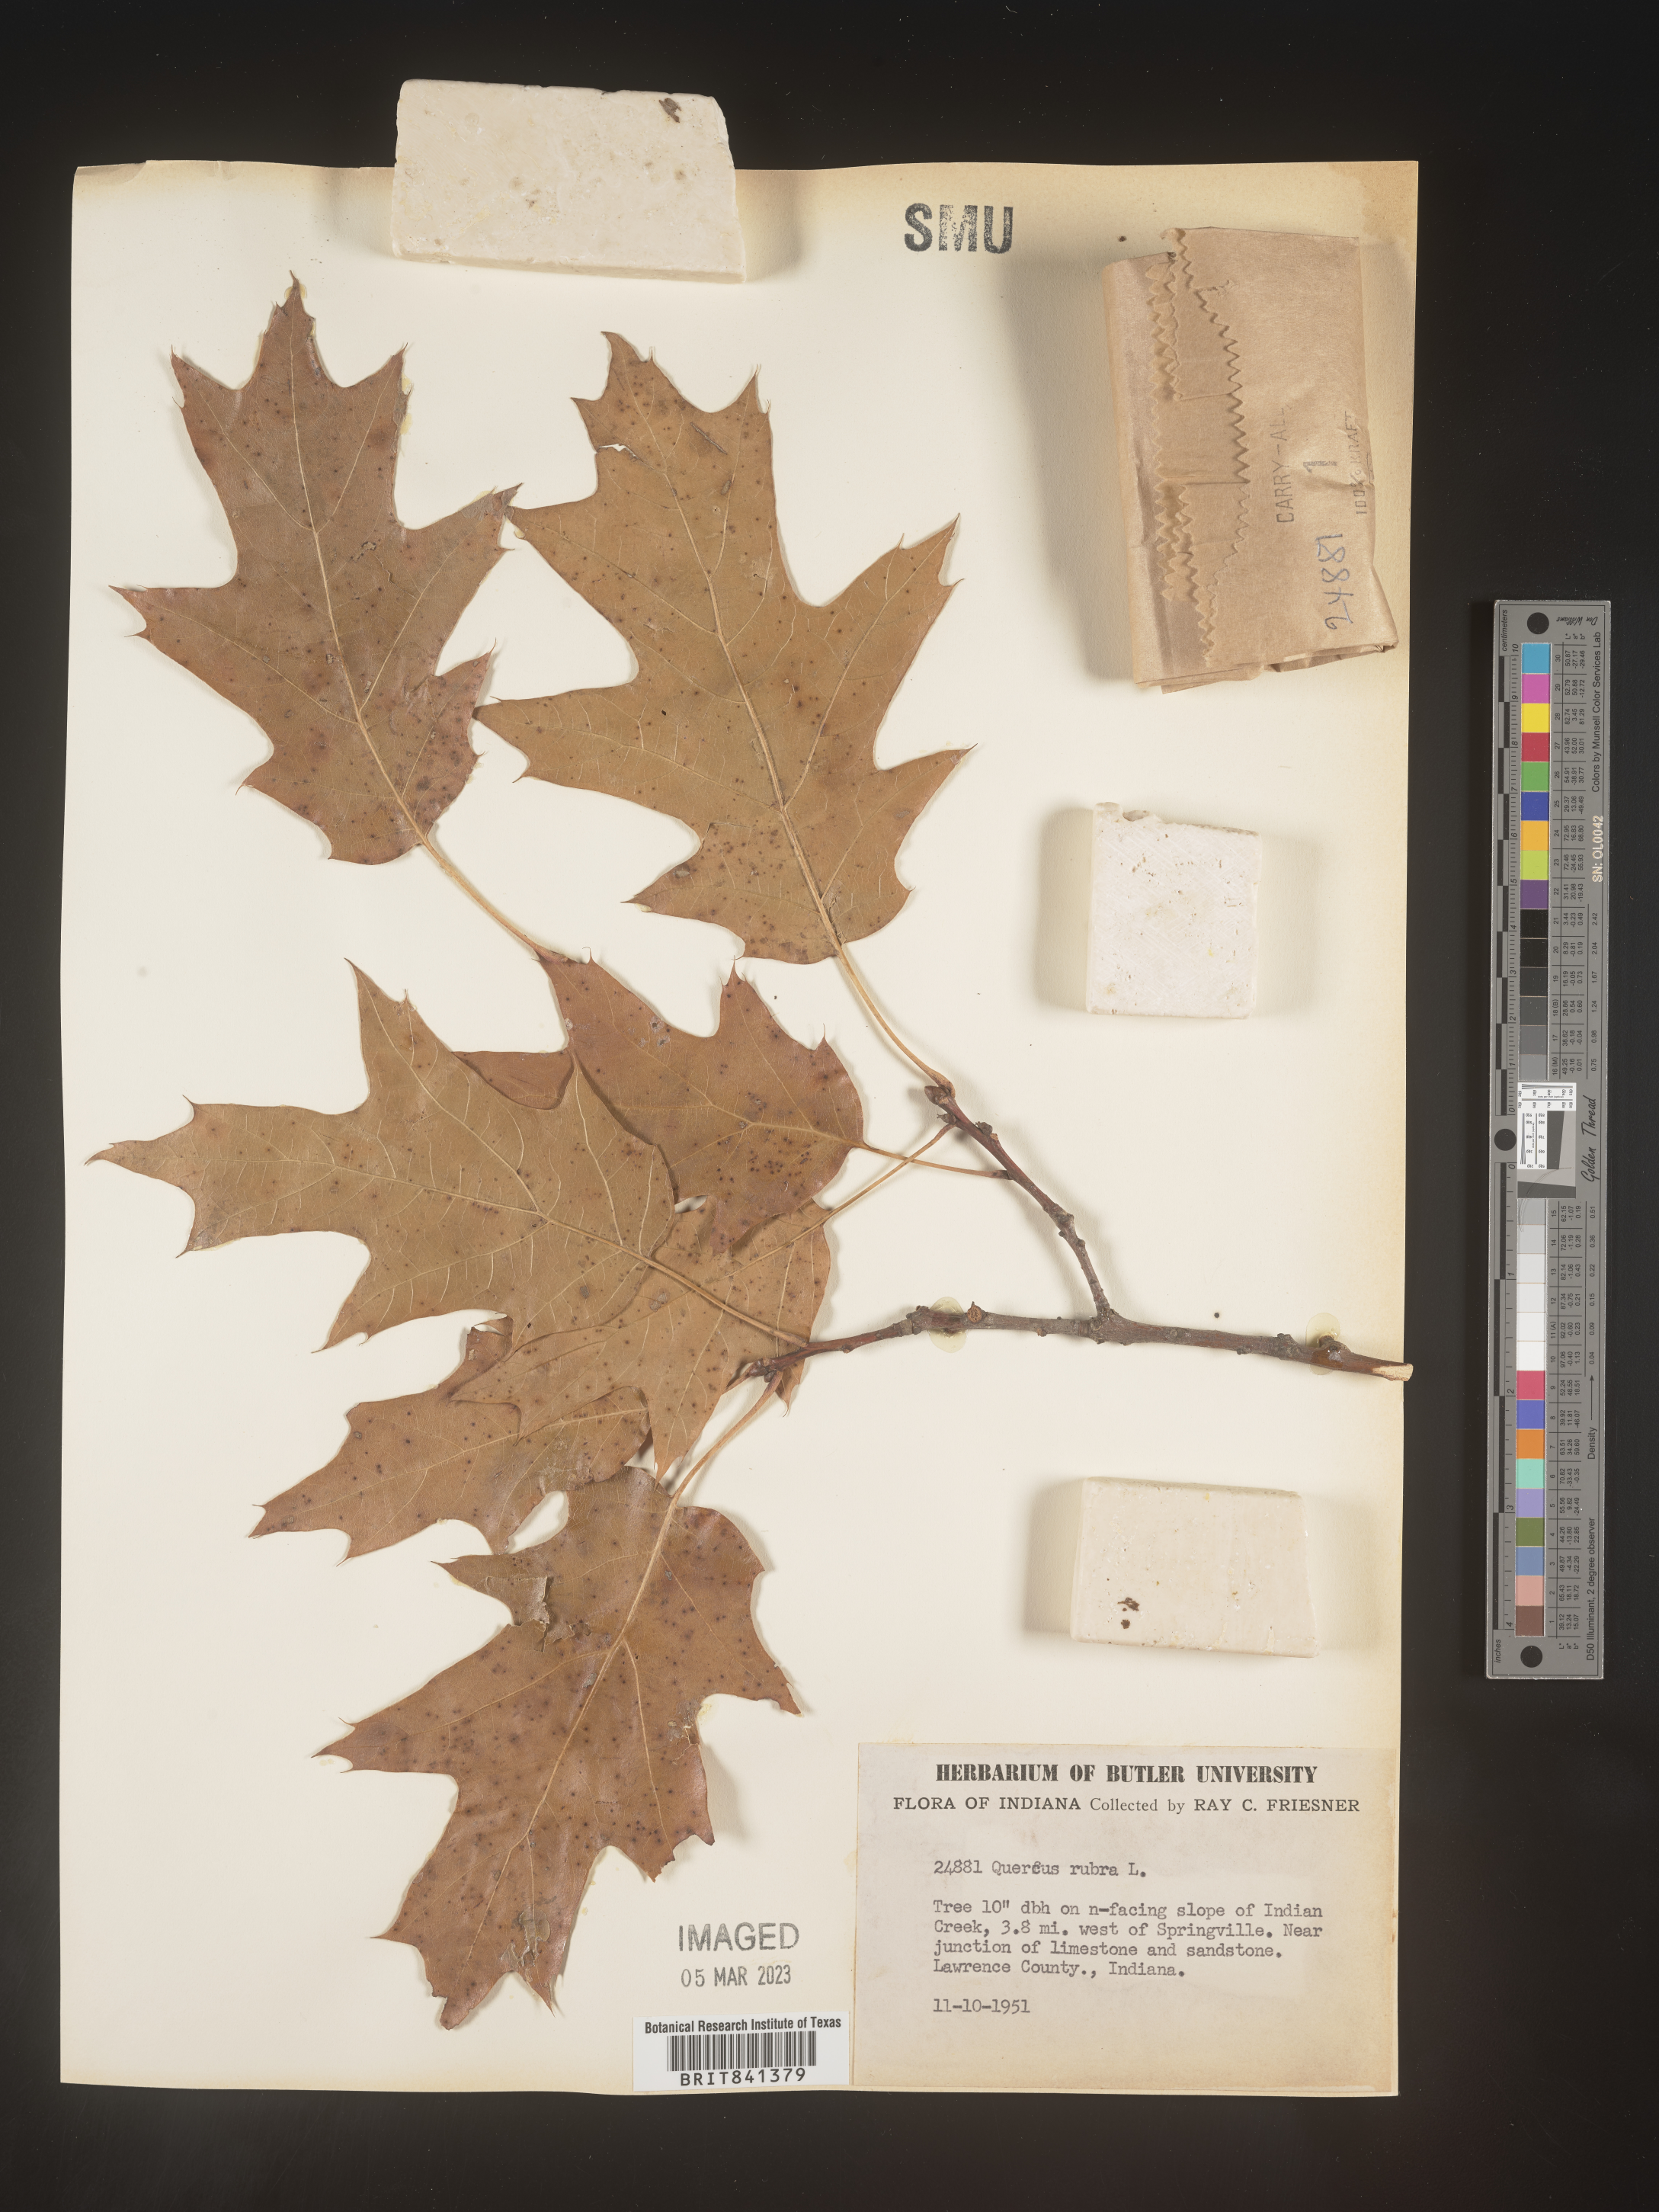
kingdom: Plantae
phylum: Tracheophyta
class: Magnoliopsida
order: Fagales
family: Fagaceae
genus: Quercus
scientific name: Quercus rubra
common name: Red oak
